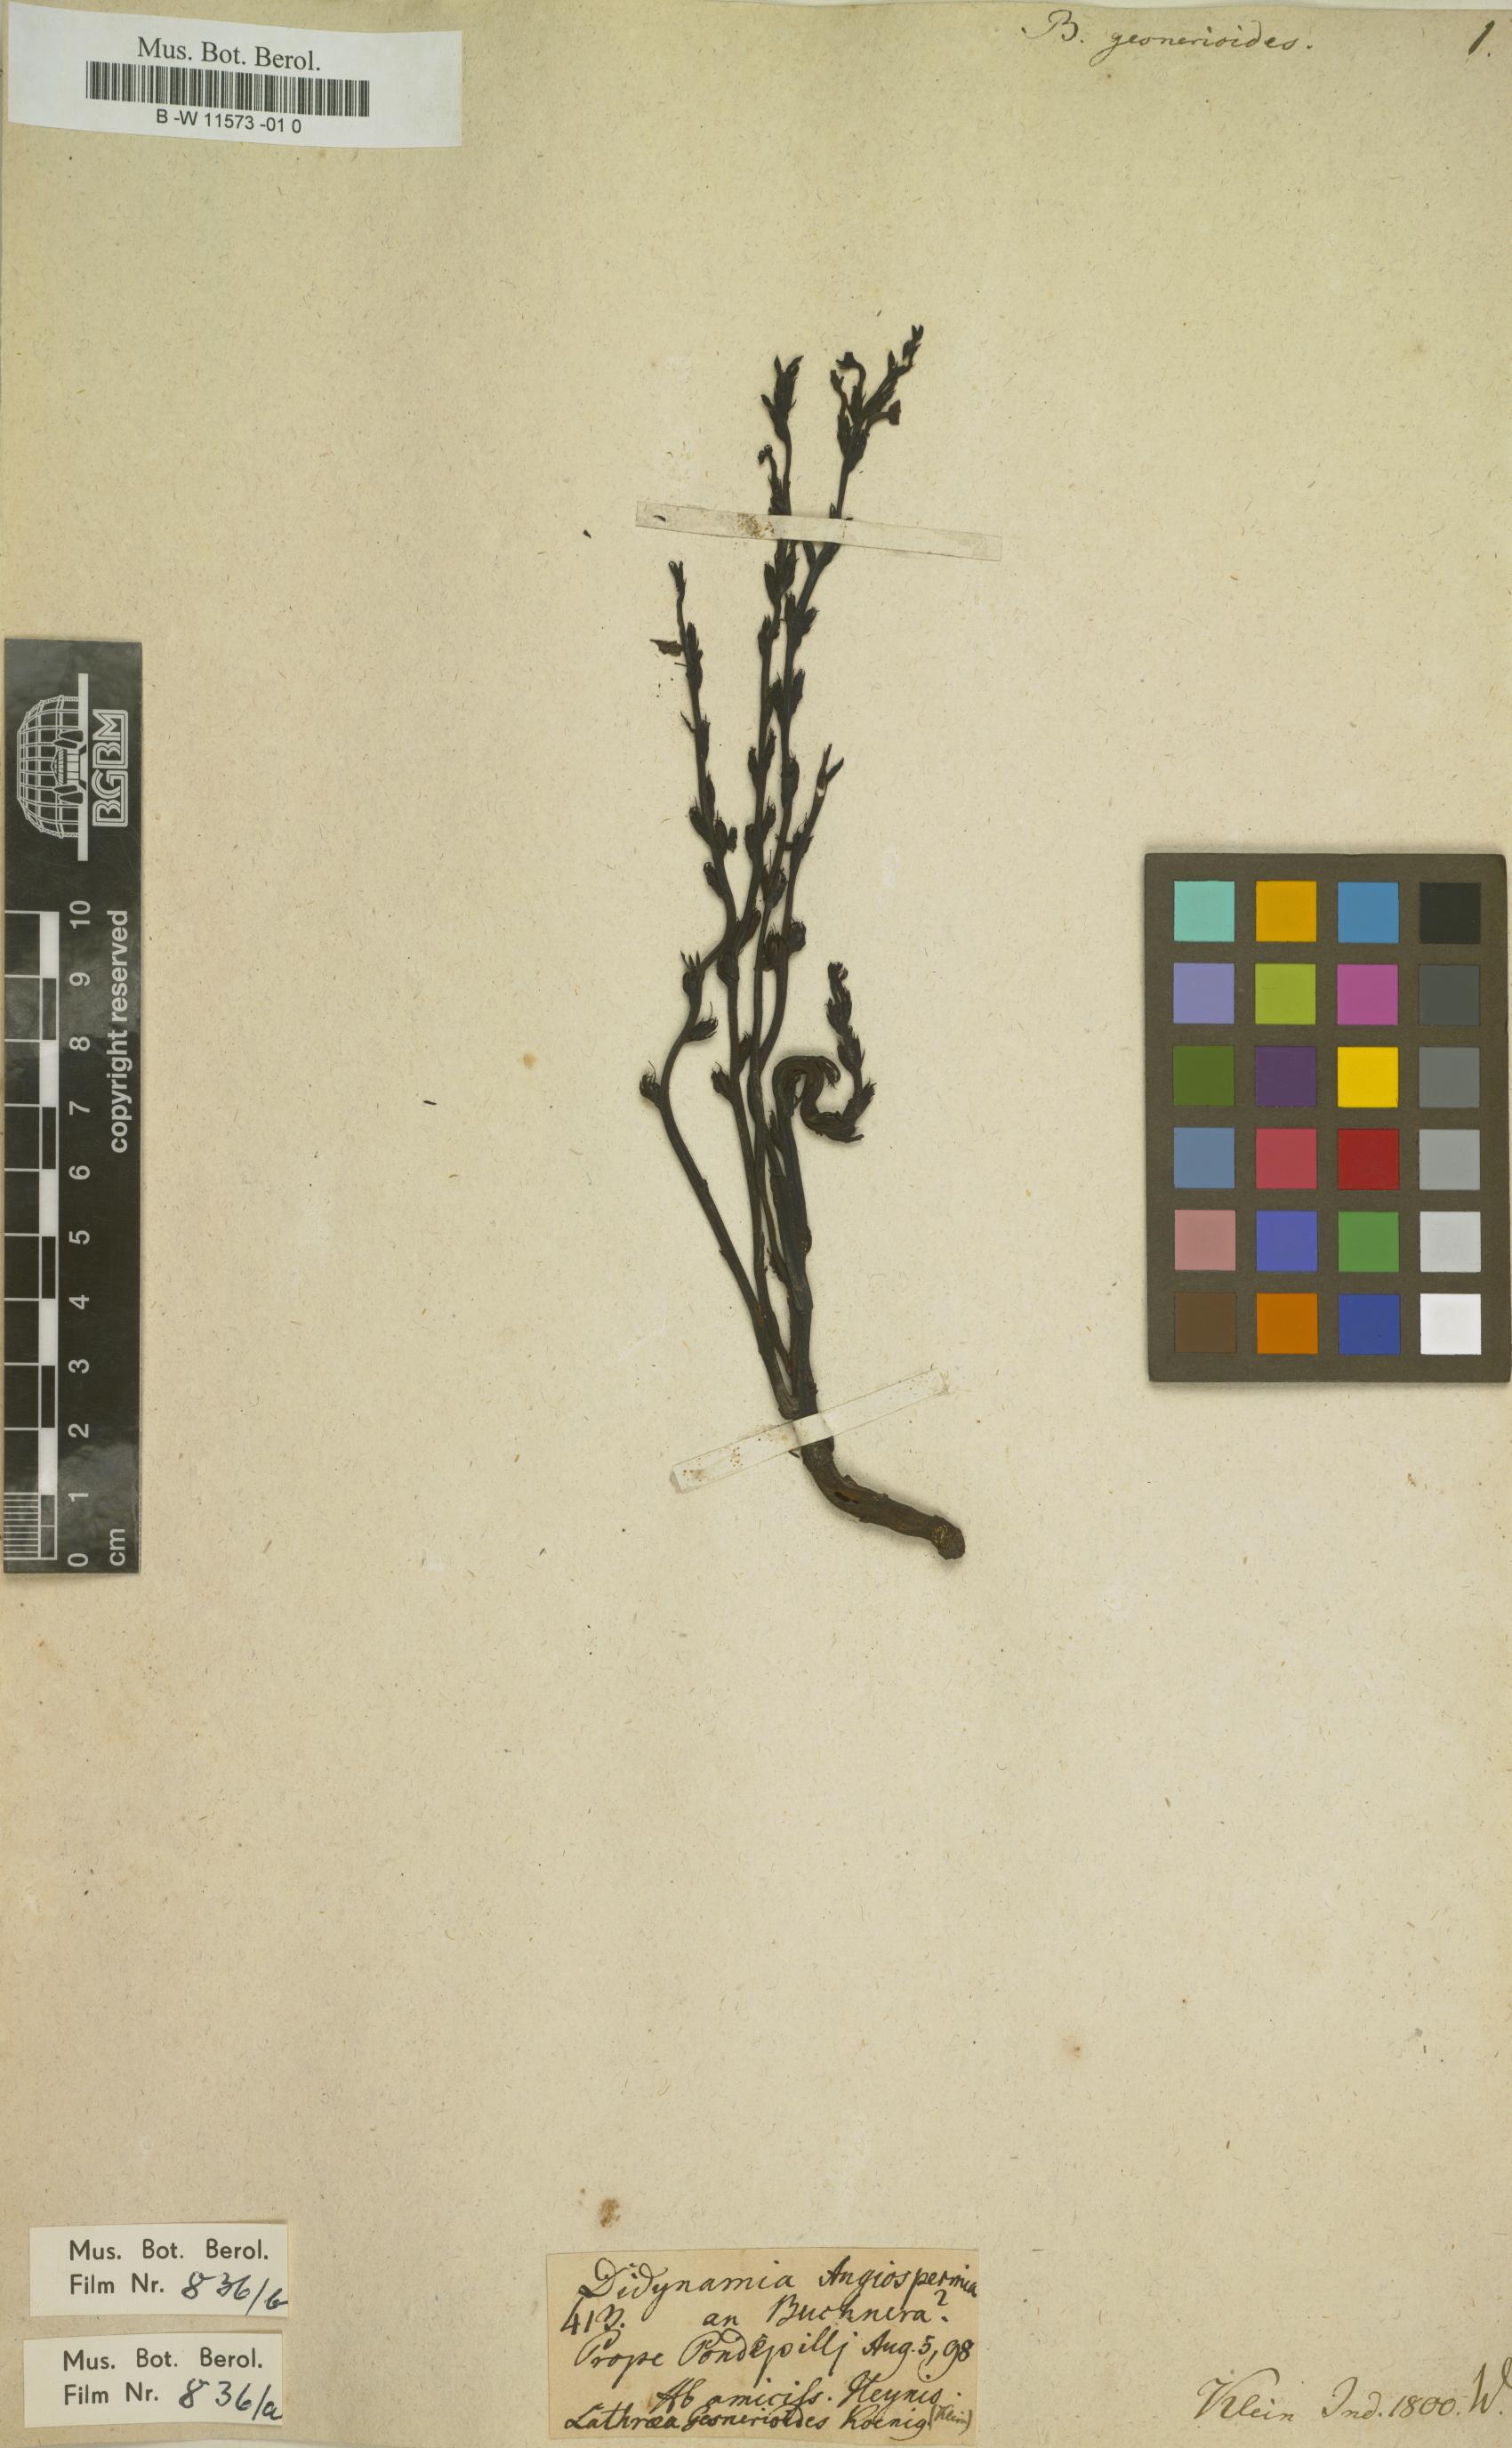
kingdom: Plantae
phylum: Tracheophyta
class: Magnoliopsida
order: Lamiales
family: Orobanchaceae
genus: Striga
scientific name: Striga gesnerioides
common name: Cowpea witchweed
